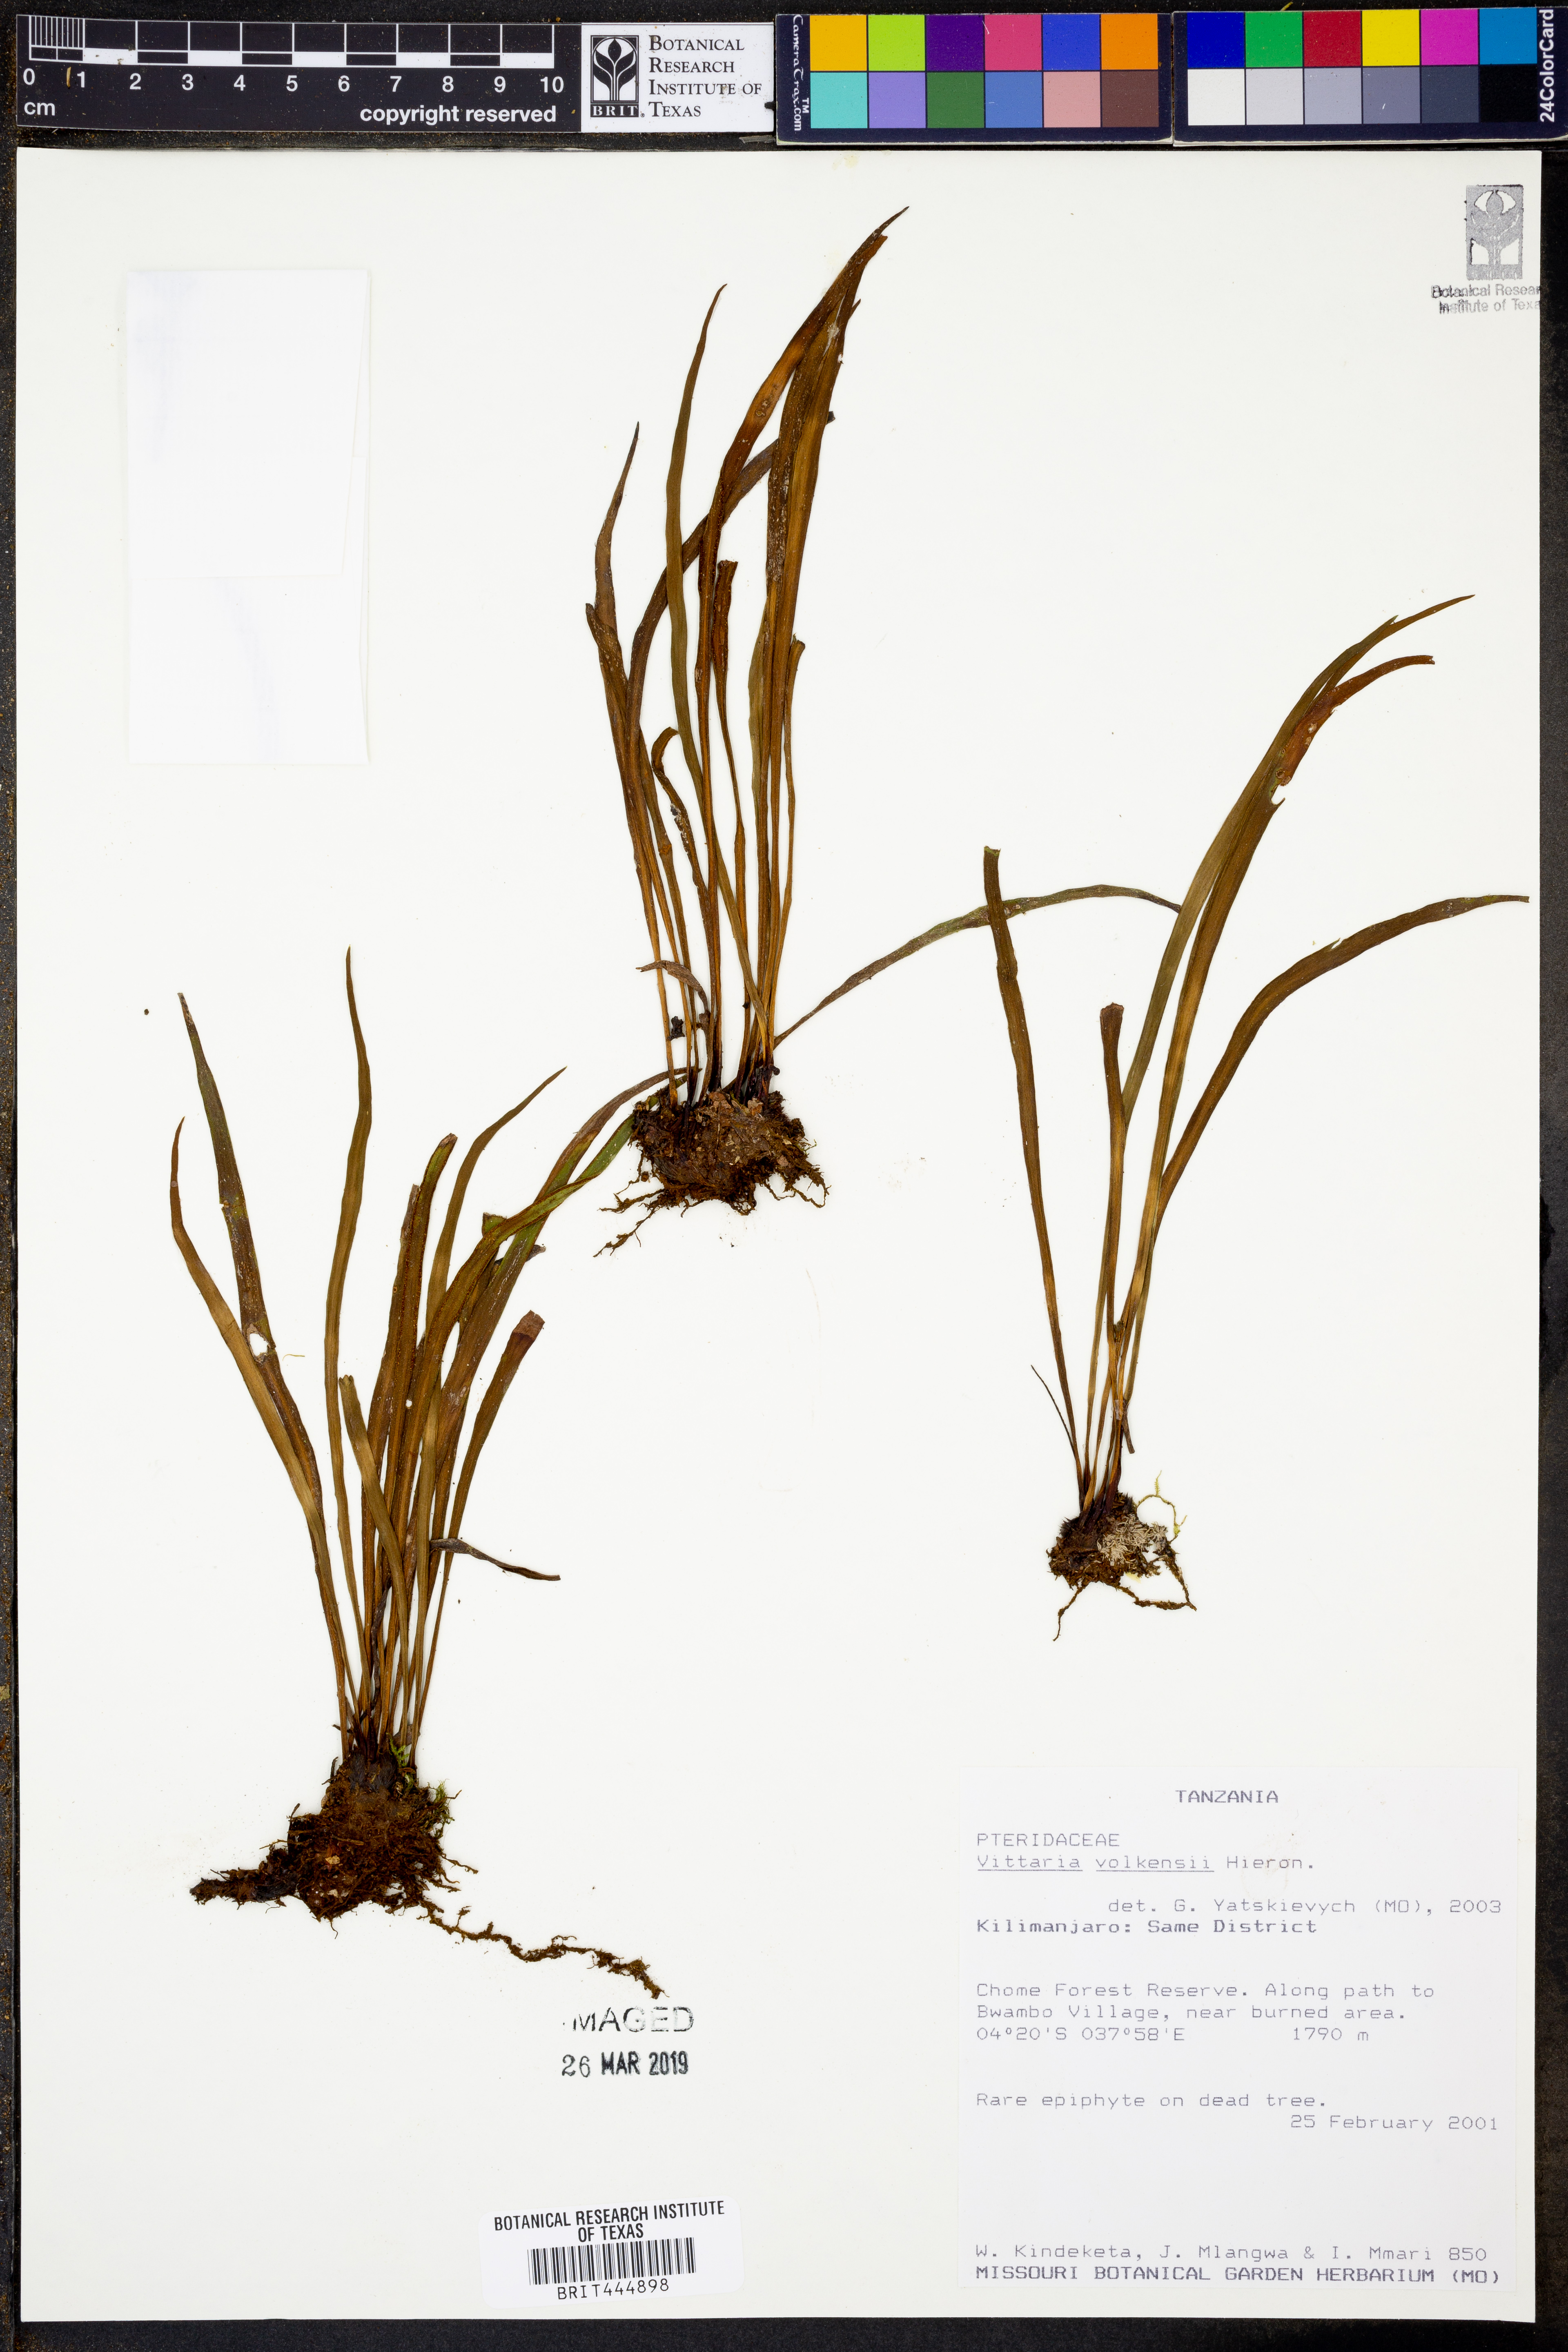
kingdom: Plantae
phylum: Tracheophyta
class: Polypodiopsida
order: Polypodiales
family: Pteridaceae
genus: Haplopteris
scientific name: Haplopteris volkensii
